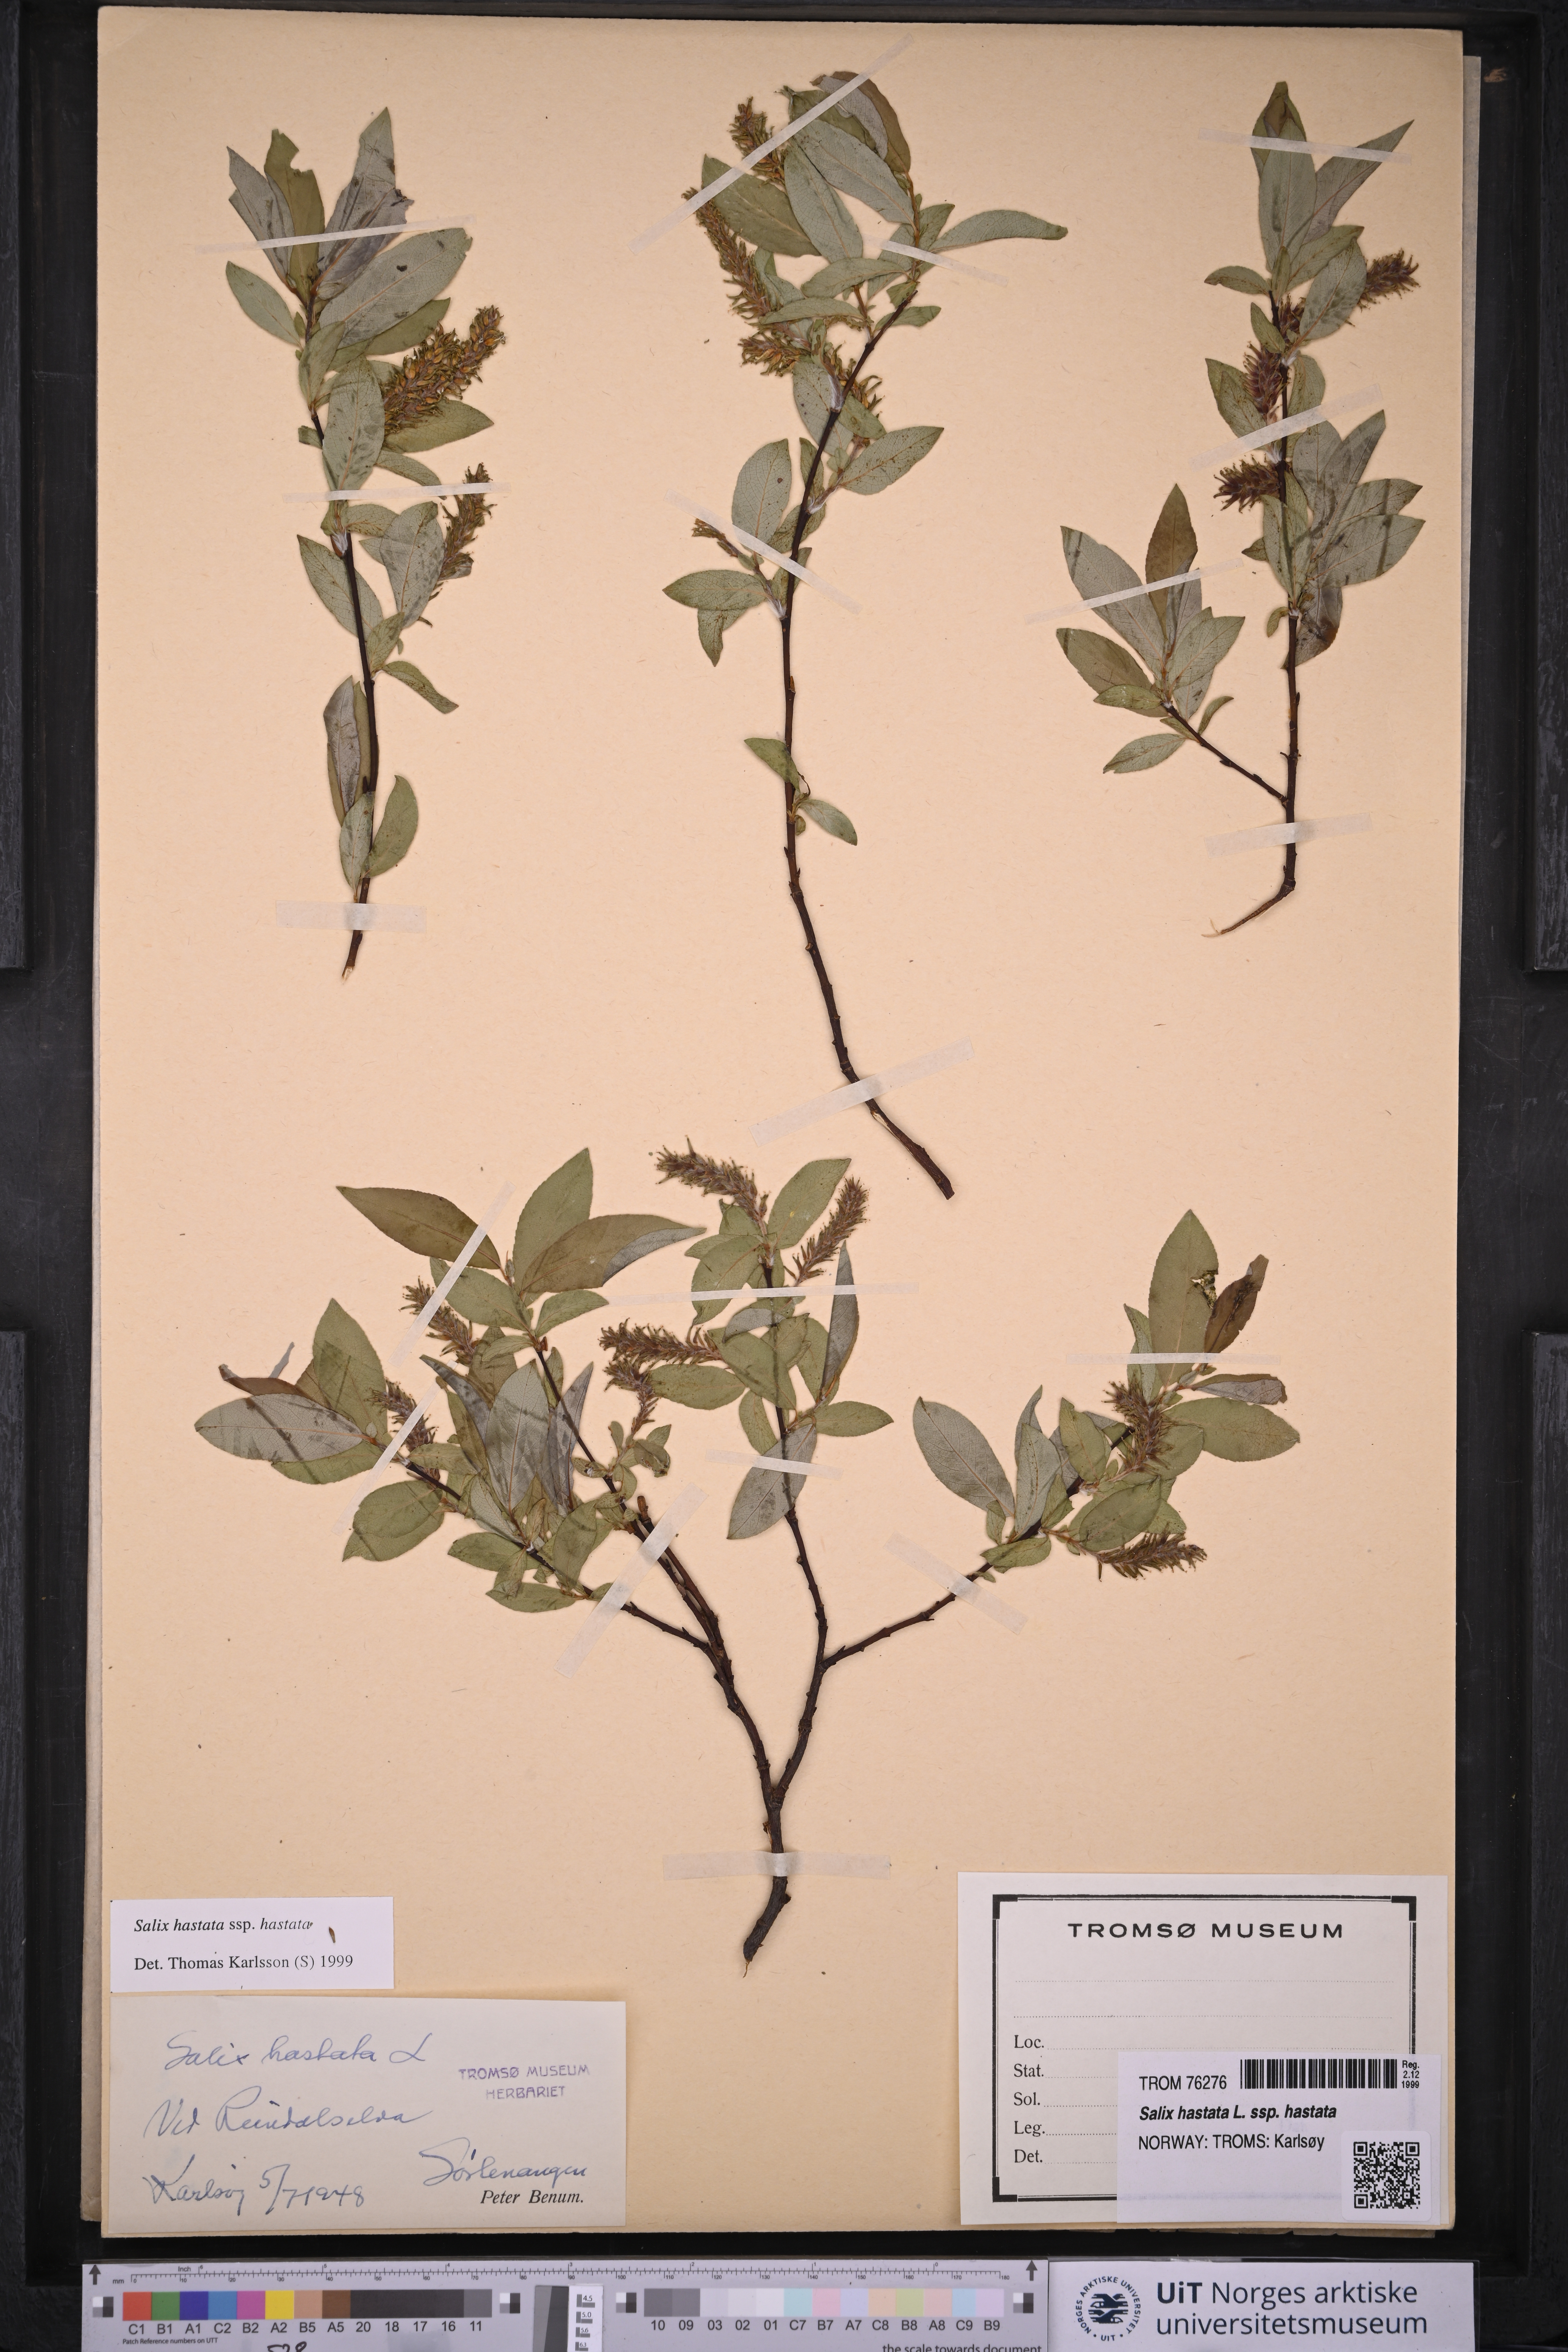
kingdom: Plantae
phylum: Tracheophyta
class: Magnoliopsida
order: Malpighiales
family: Salicaceae
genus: Salix
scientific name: Salix hastata
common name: Halberd willow
